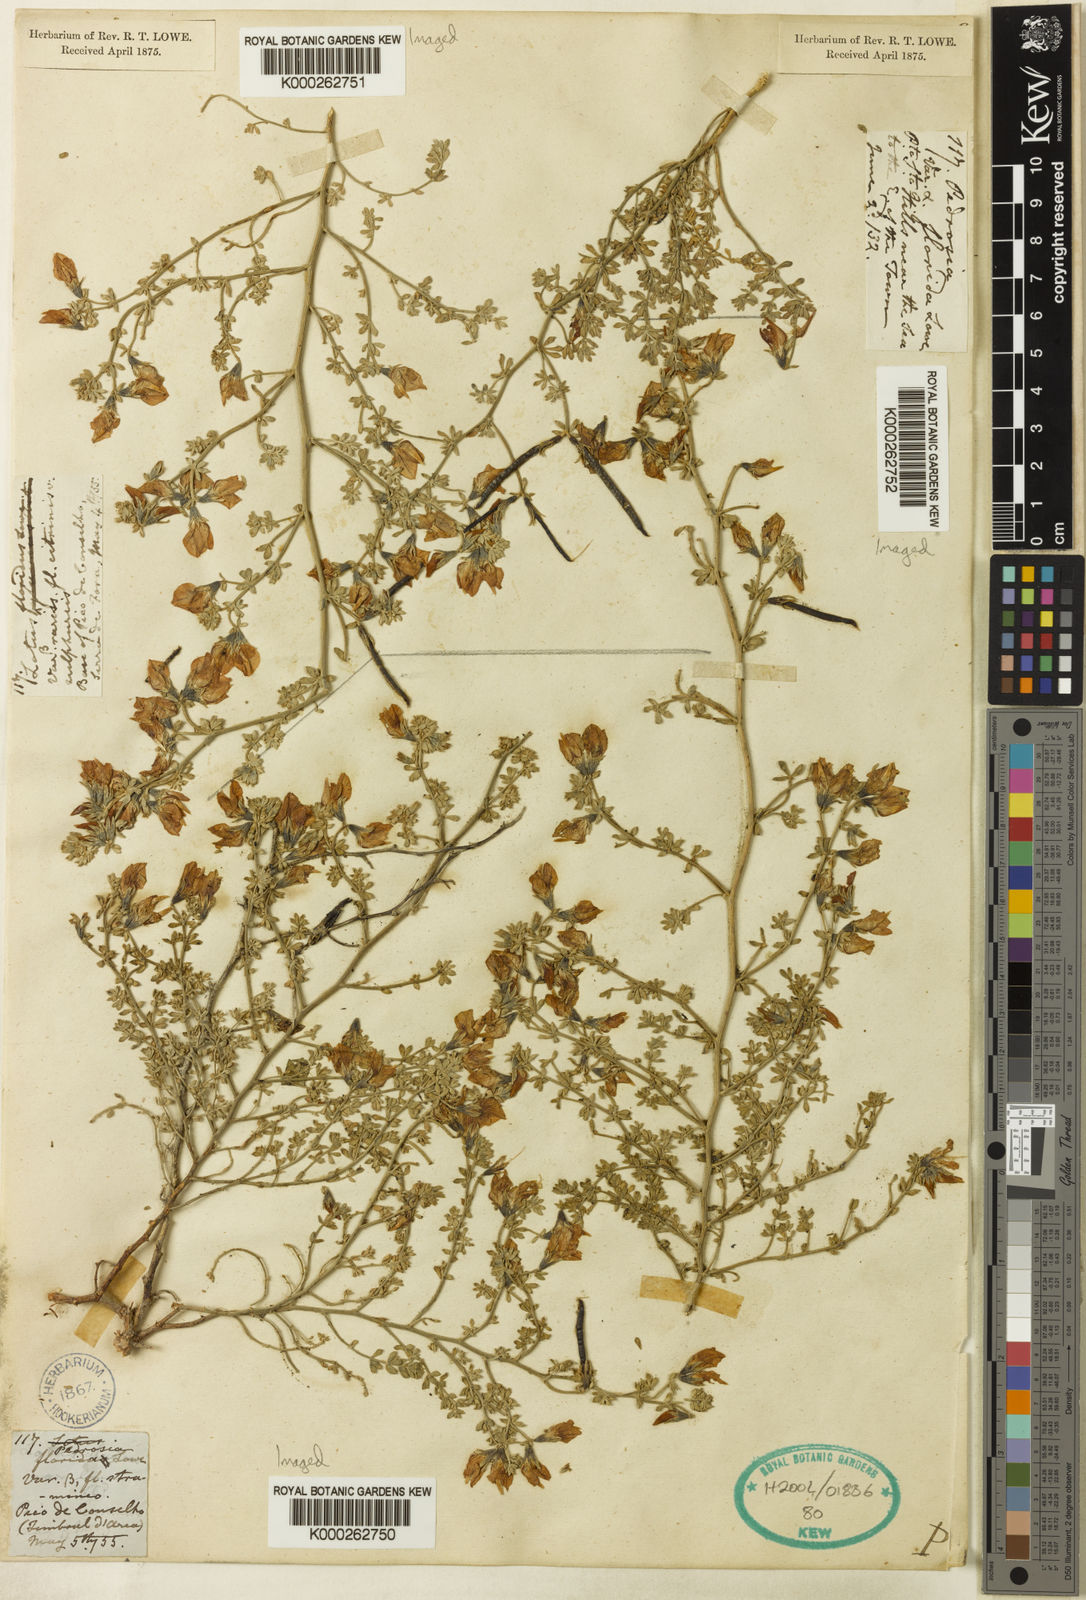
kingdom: Plantae
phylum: Tracheophyta
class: Magnoliopsida
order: Fabales
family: Fabaceae
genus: Lotus
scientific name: Lotus glaucus
